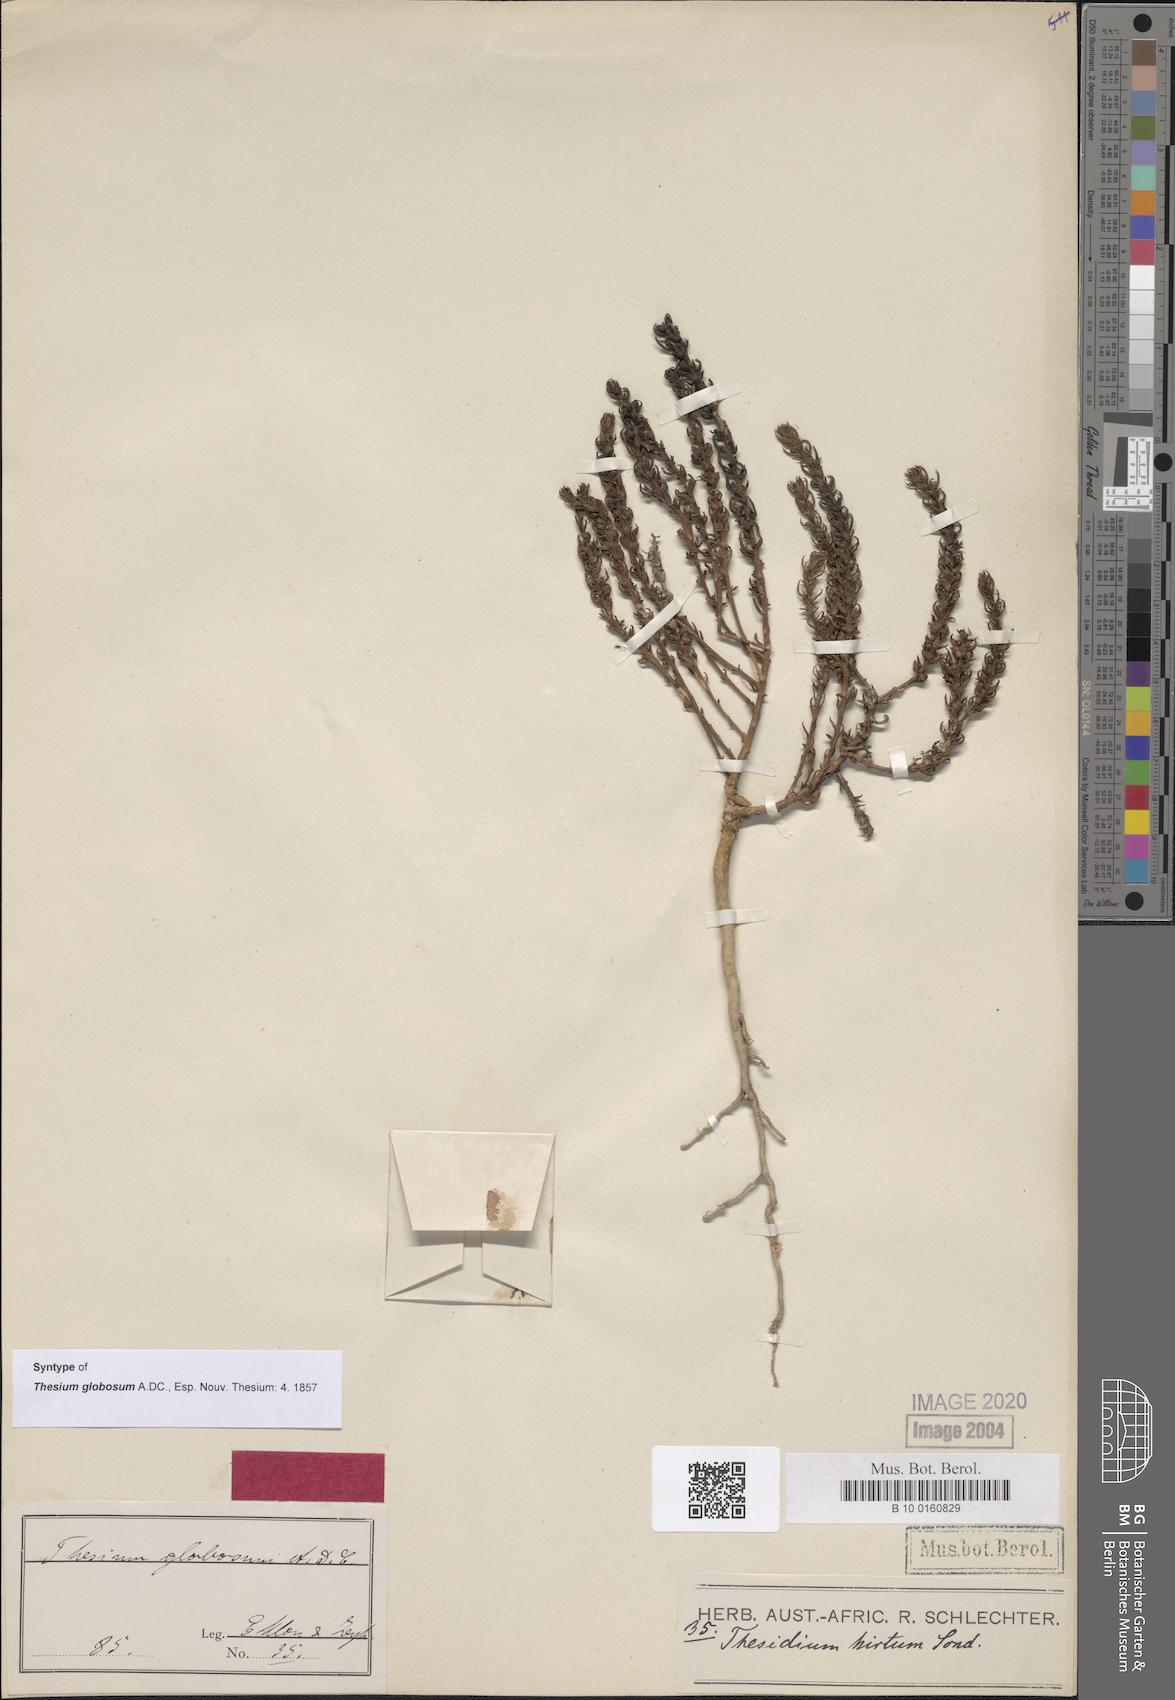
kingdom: Plantae
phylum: Tracheophyta
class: Magnoliopsida
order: Santalales
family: Thesiaceae
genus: Thesium
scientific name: Thesium globosum
